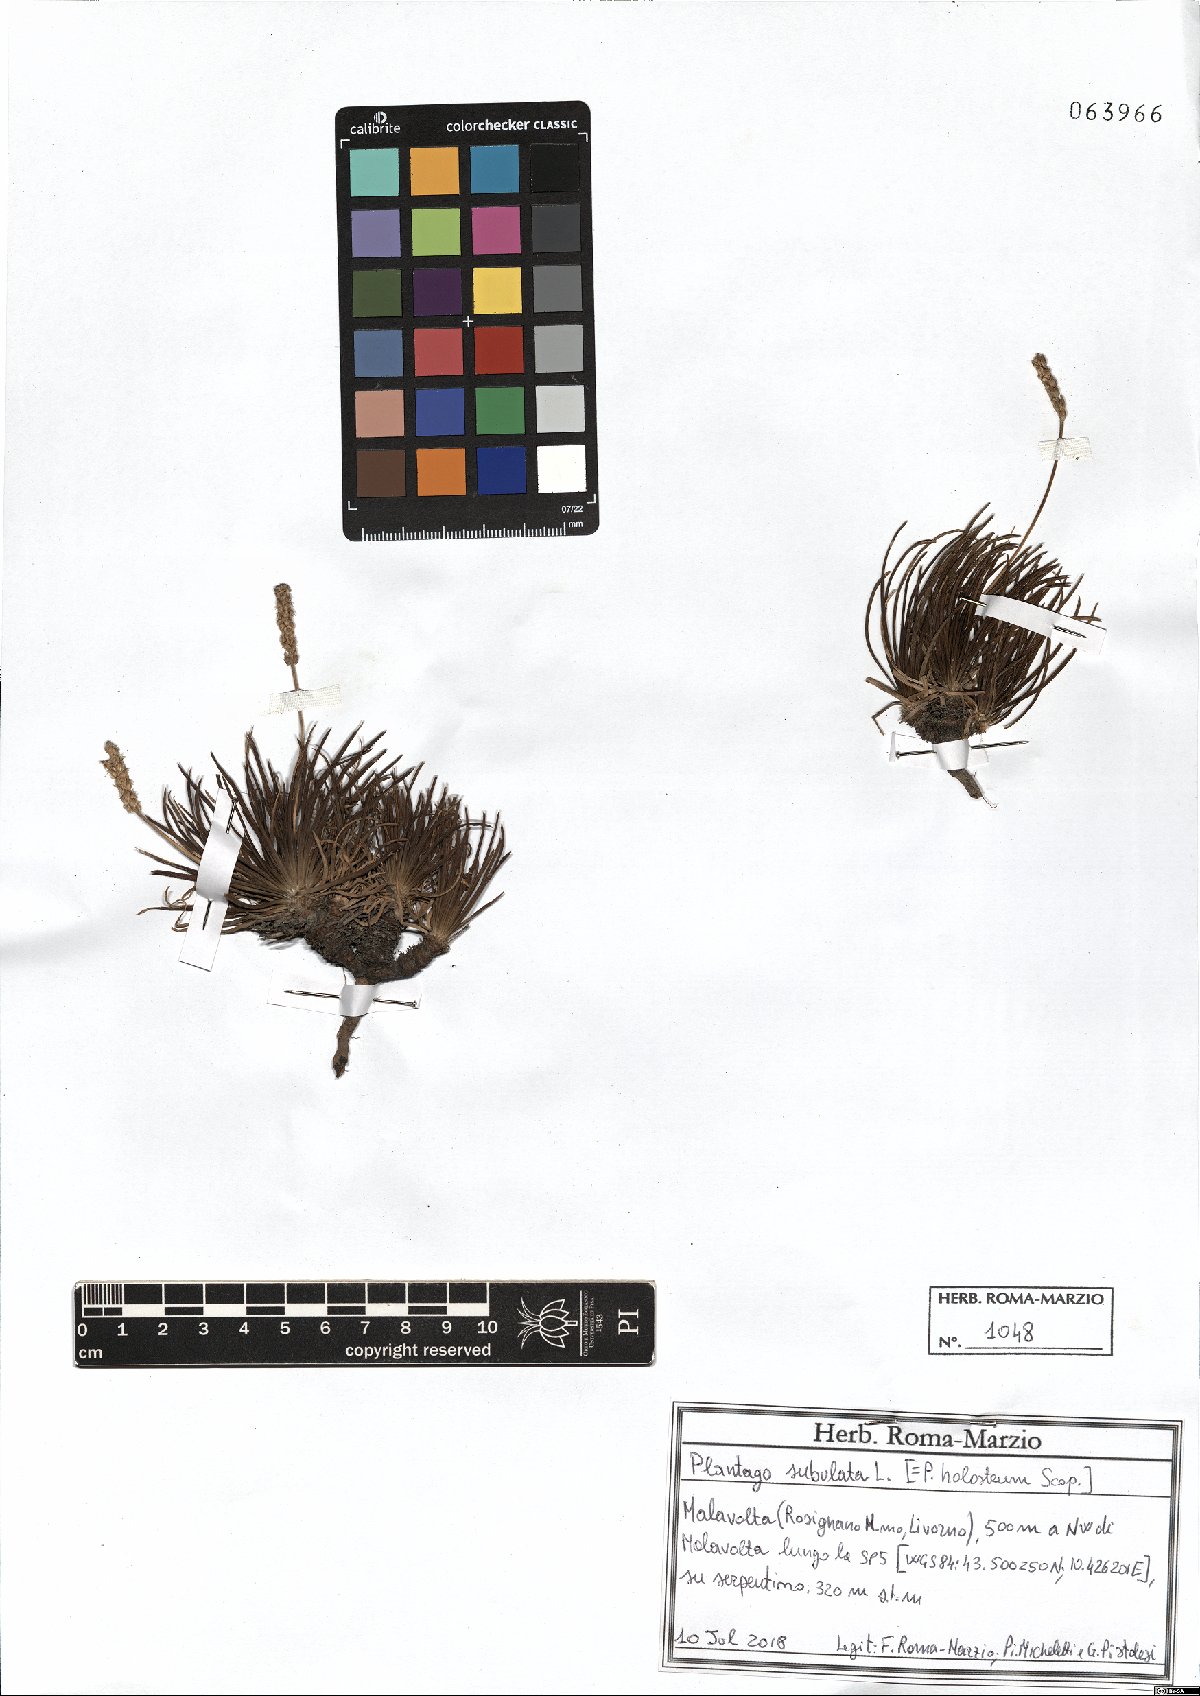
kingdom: Plantae
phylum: Tracheophyta
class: Magnoliopsida
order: Lamiales
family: Plantaginaceae
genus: Plantago
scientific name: Plantago subulata
